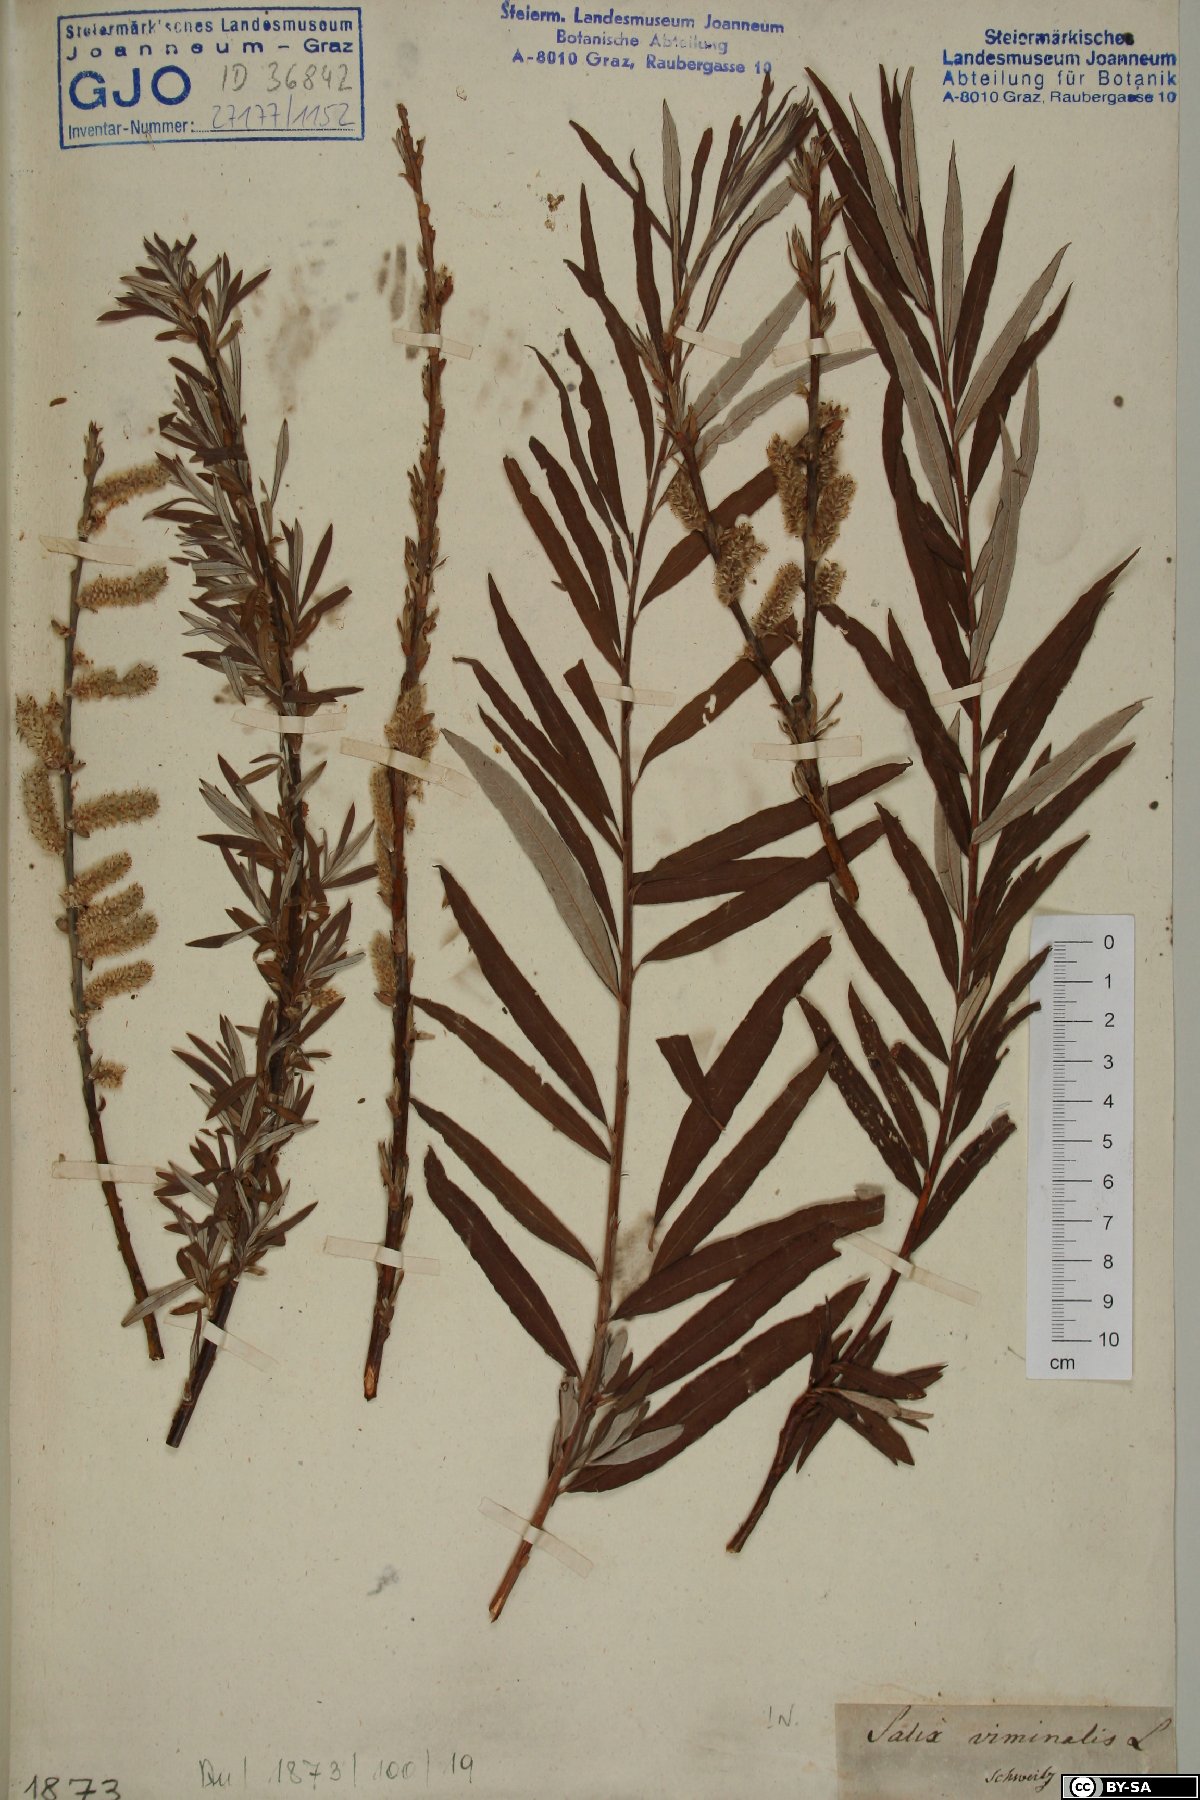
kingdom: Plantae
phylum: Tracheophyta
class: Magnoliopsida
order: Malpighiales
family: Salicaceae
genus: Salix
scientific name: Salix viminalis
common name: Osier
